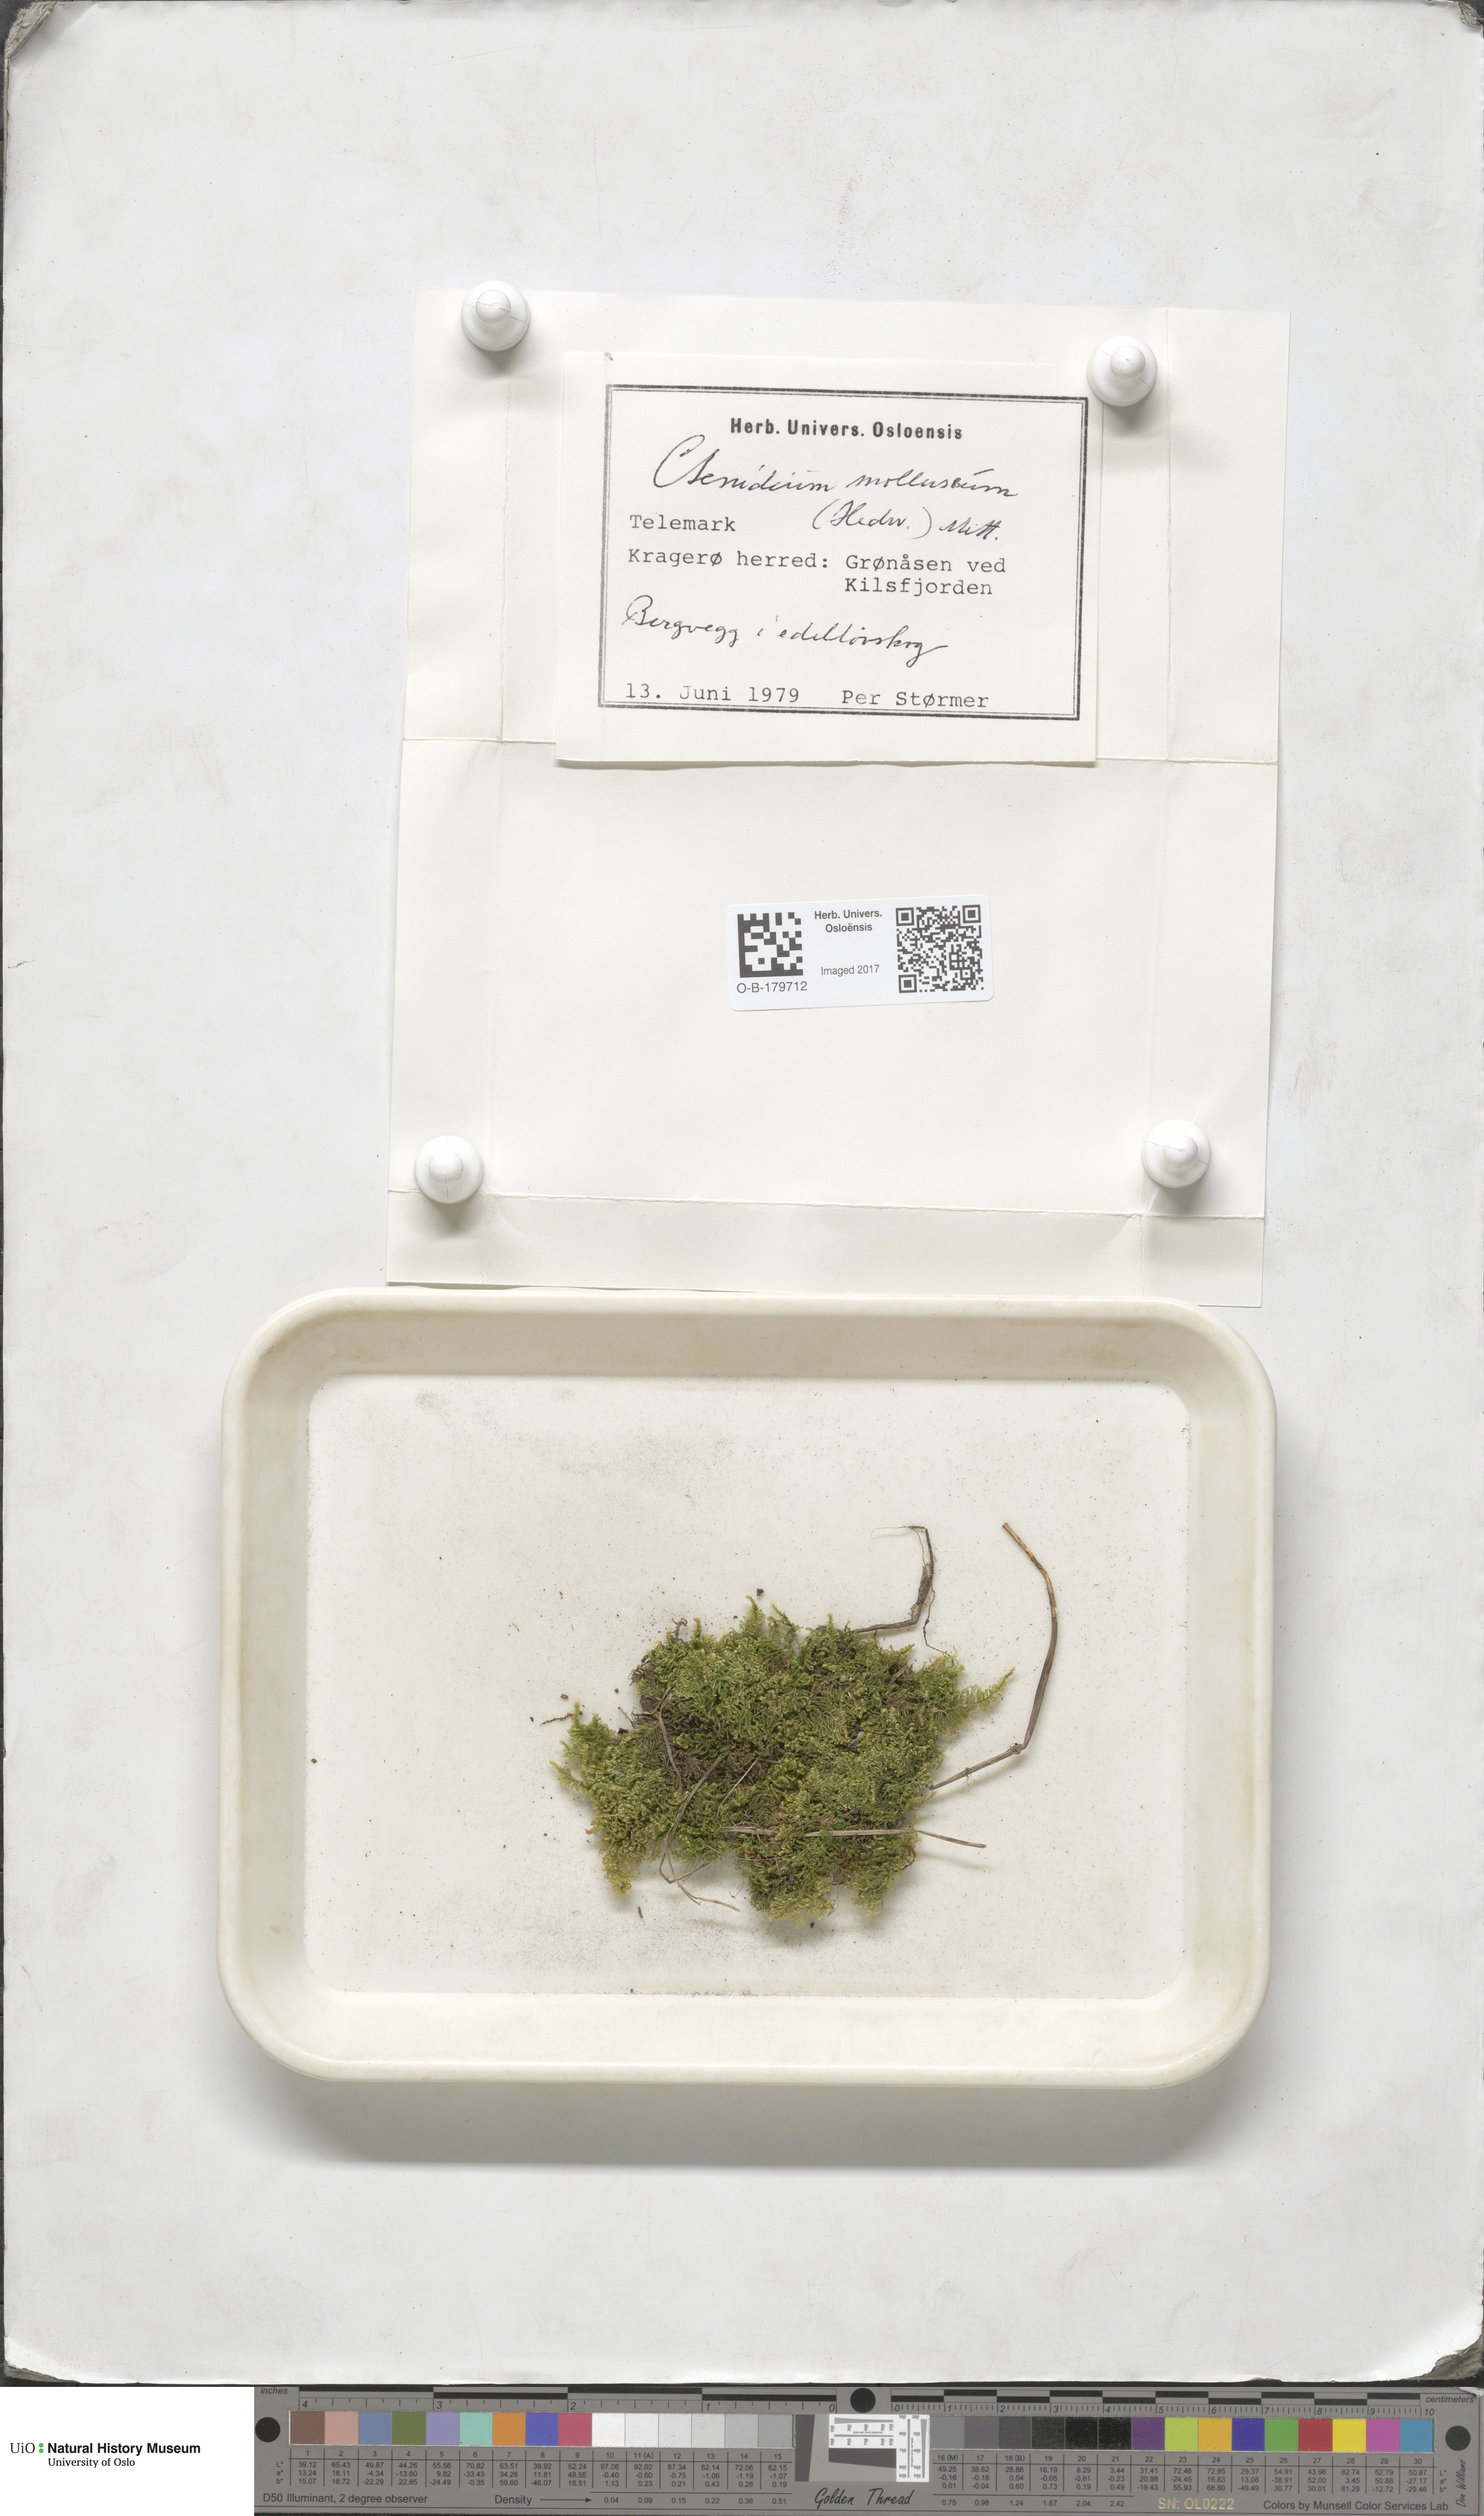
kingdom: Plantae
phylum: Bryophyta
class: Bryopsida
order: Hypnales
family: Myuriaceae
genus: Ctenidium
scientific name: Ctenidium molluscum
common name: Chalk comb-moss
